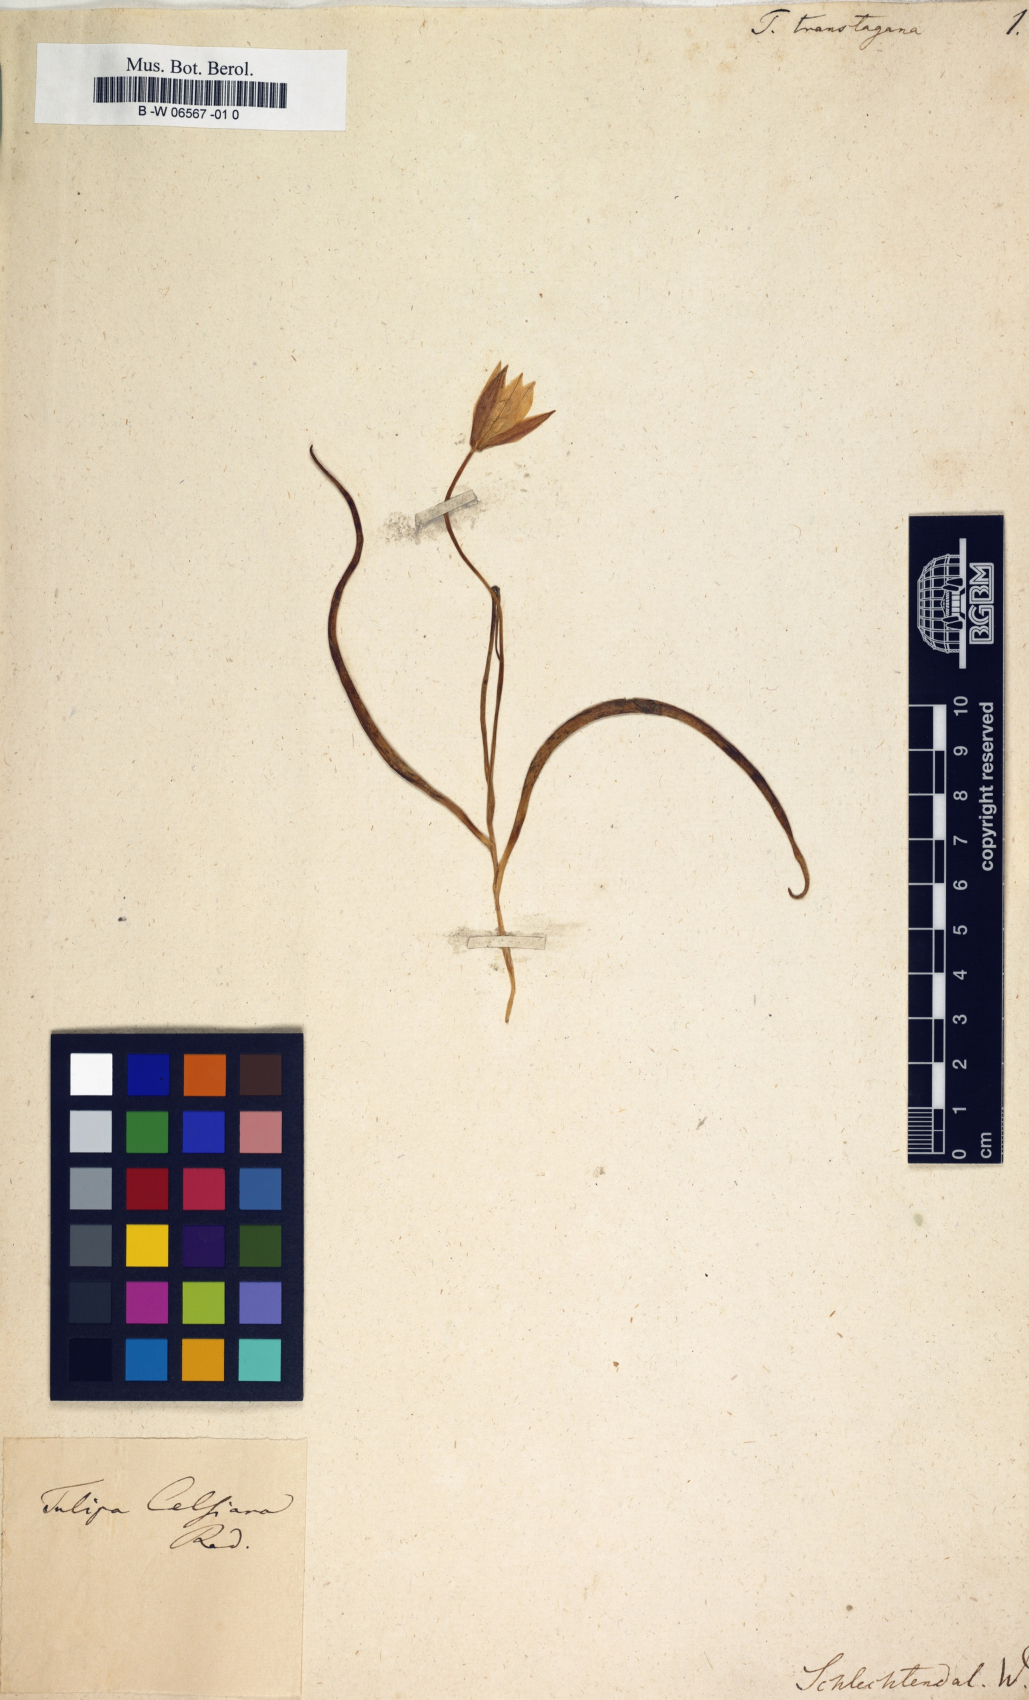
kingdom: Plantae
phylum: Tracheophyta
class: Liliopsida
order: Asparagales
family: Asparagaceae
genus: Milla
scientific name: Milla biflora
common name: Mexican-star
